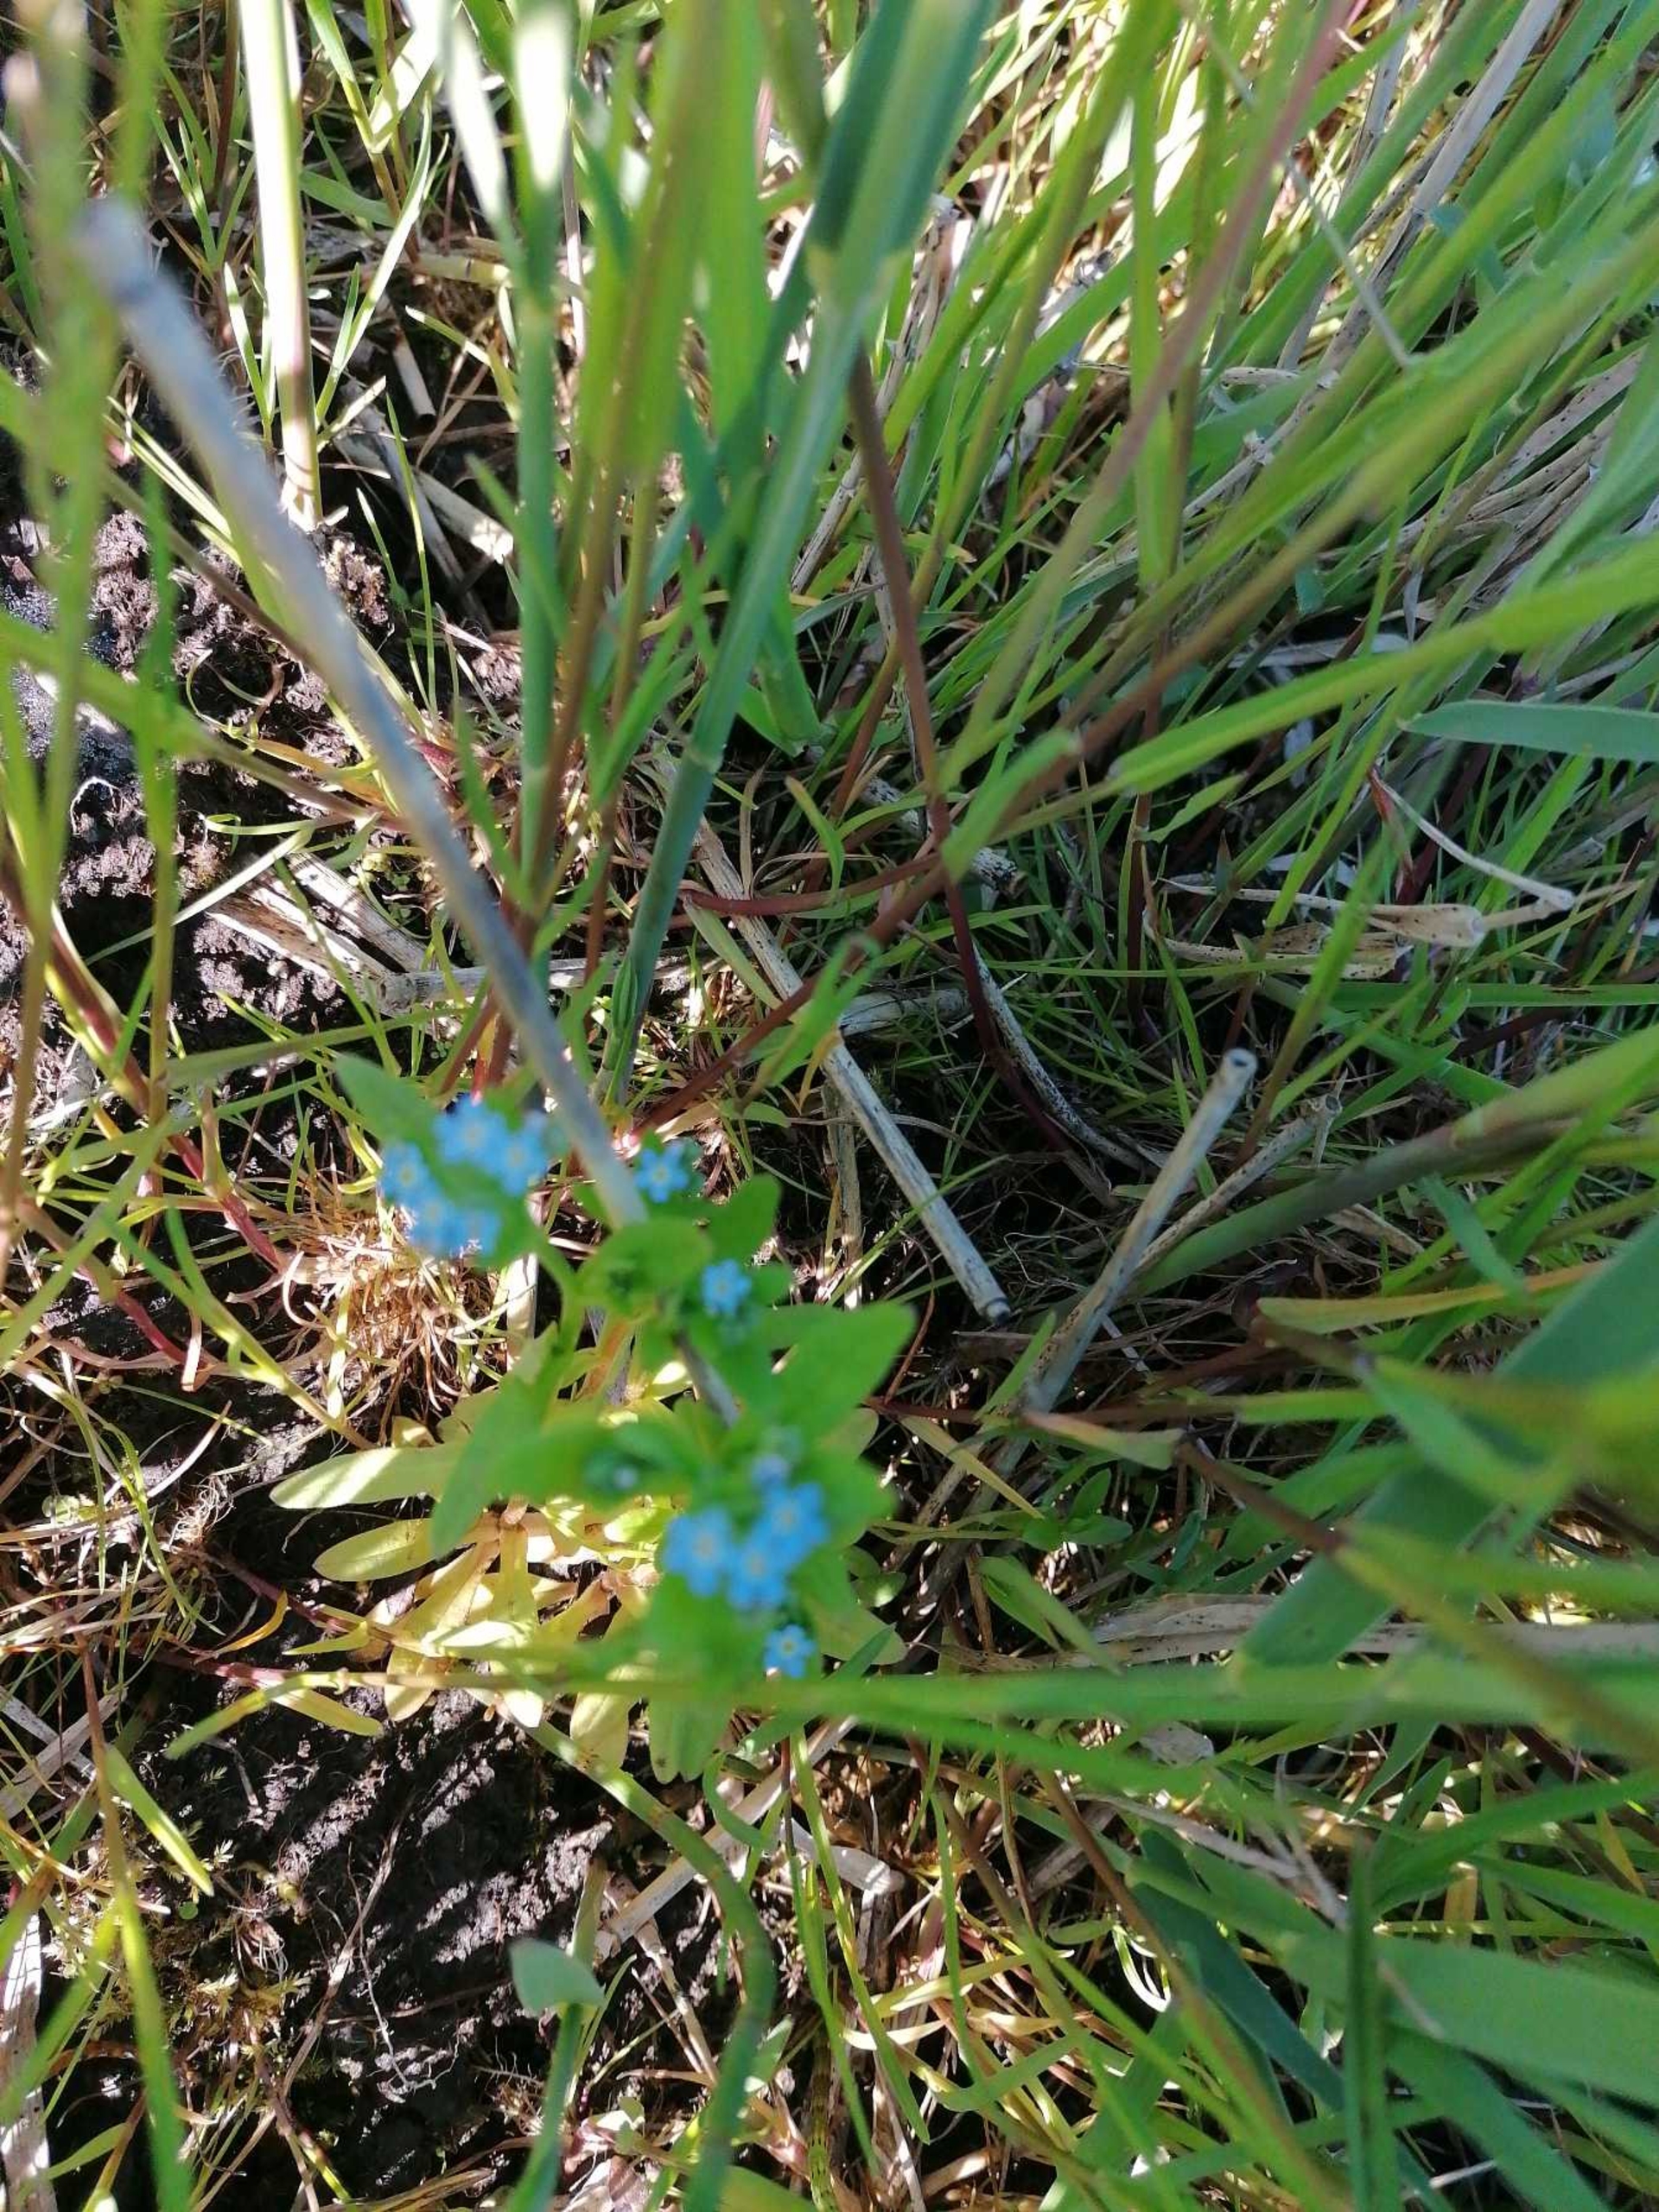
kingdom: Plantae
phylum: Tracheophyta
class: Magnoliopsida
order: Boraginales
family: Boraginaceae
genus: Myosotis
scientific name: Myosotis scorpioides
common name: Eng-forglemmigej
